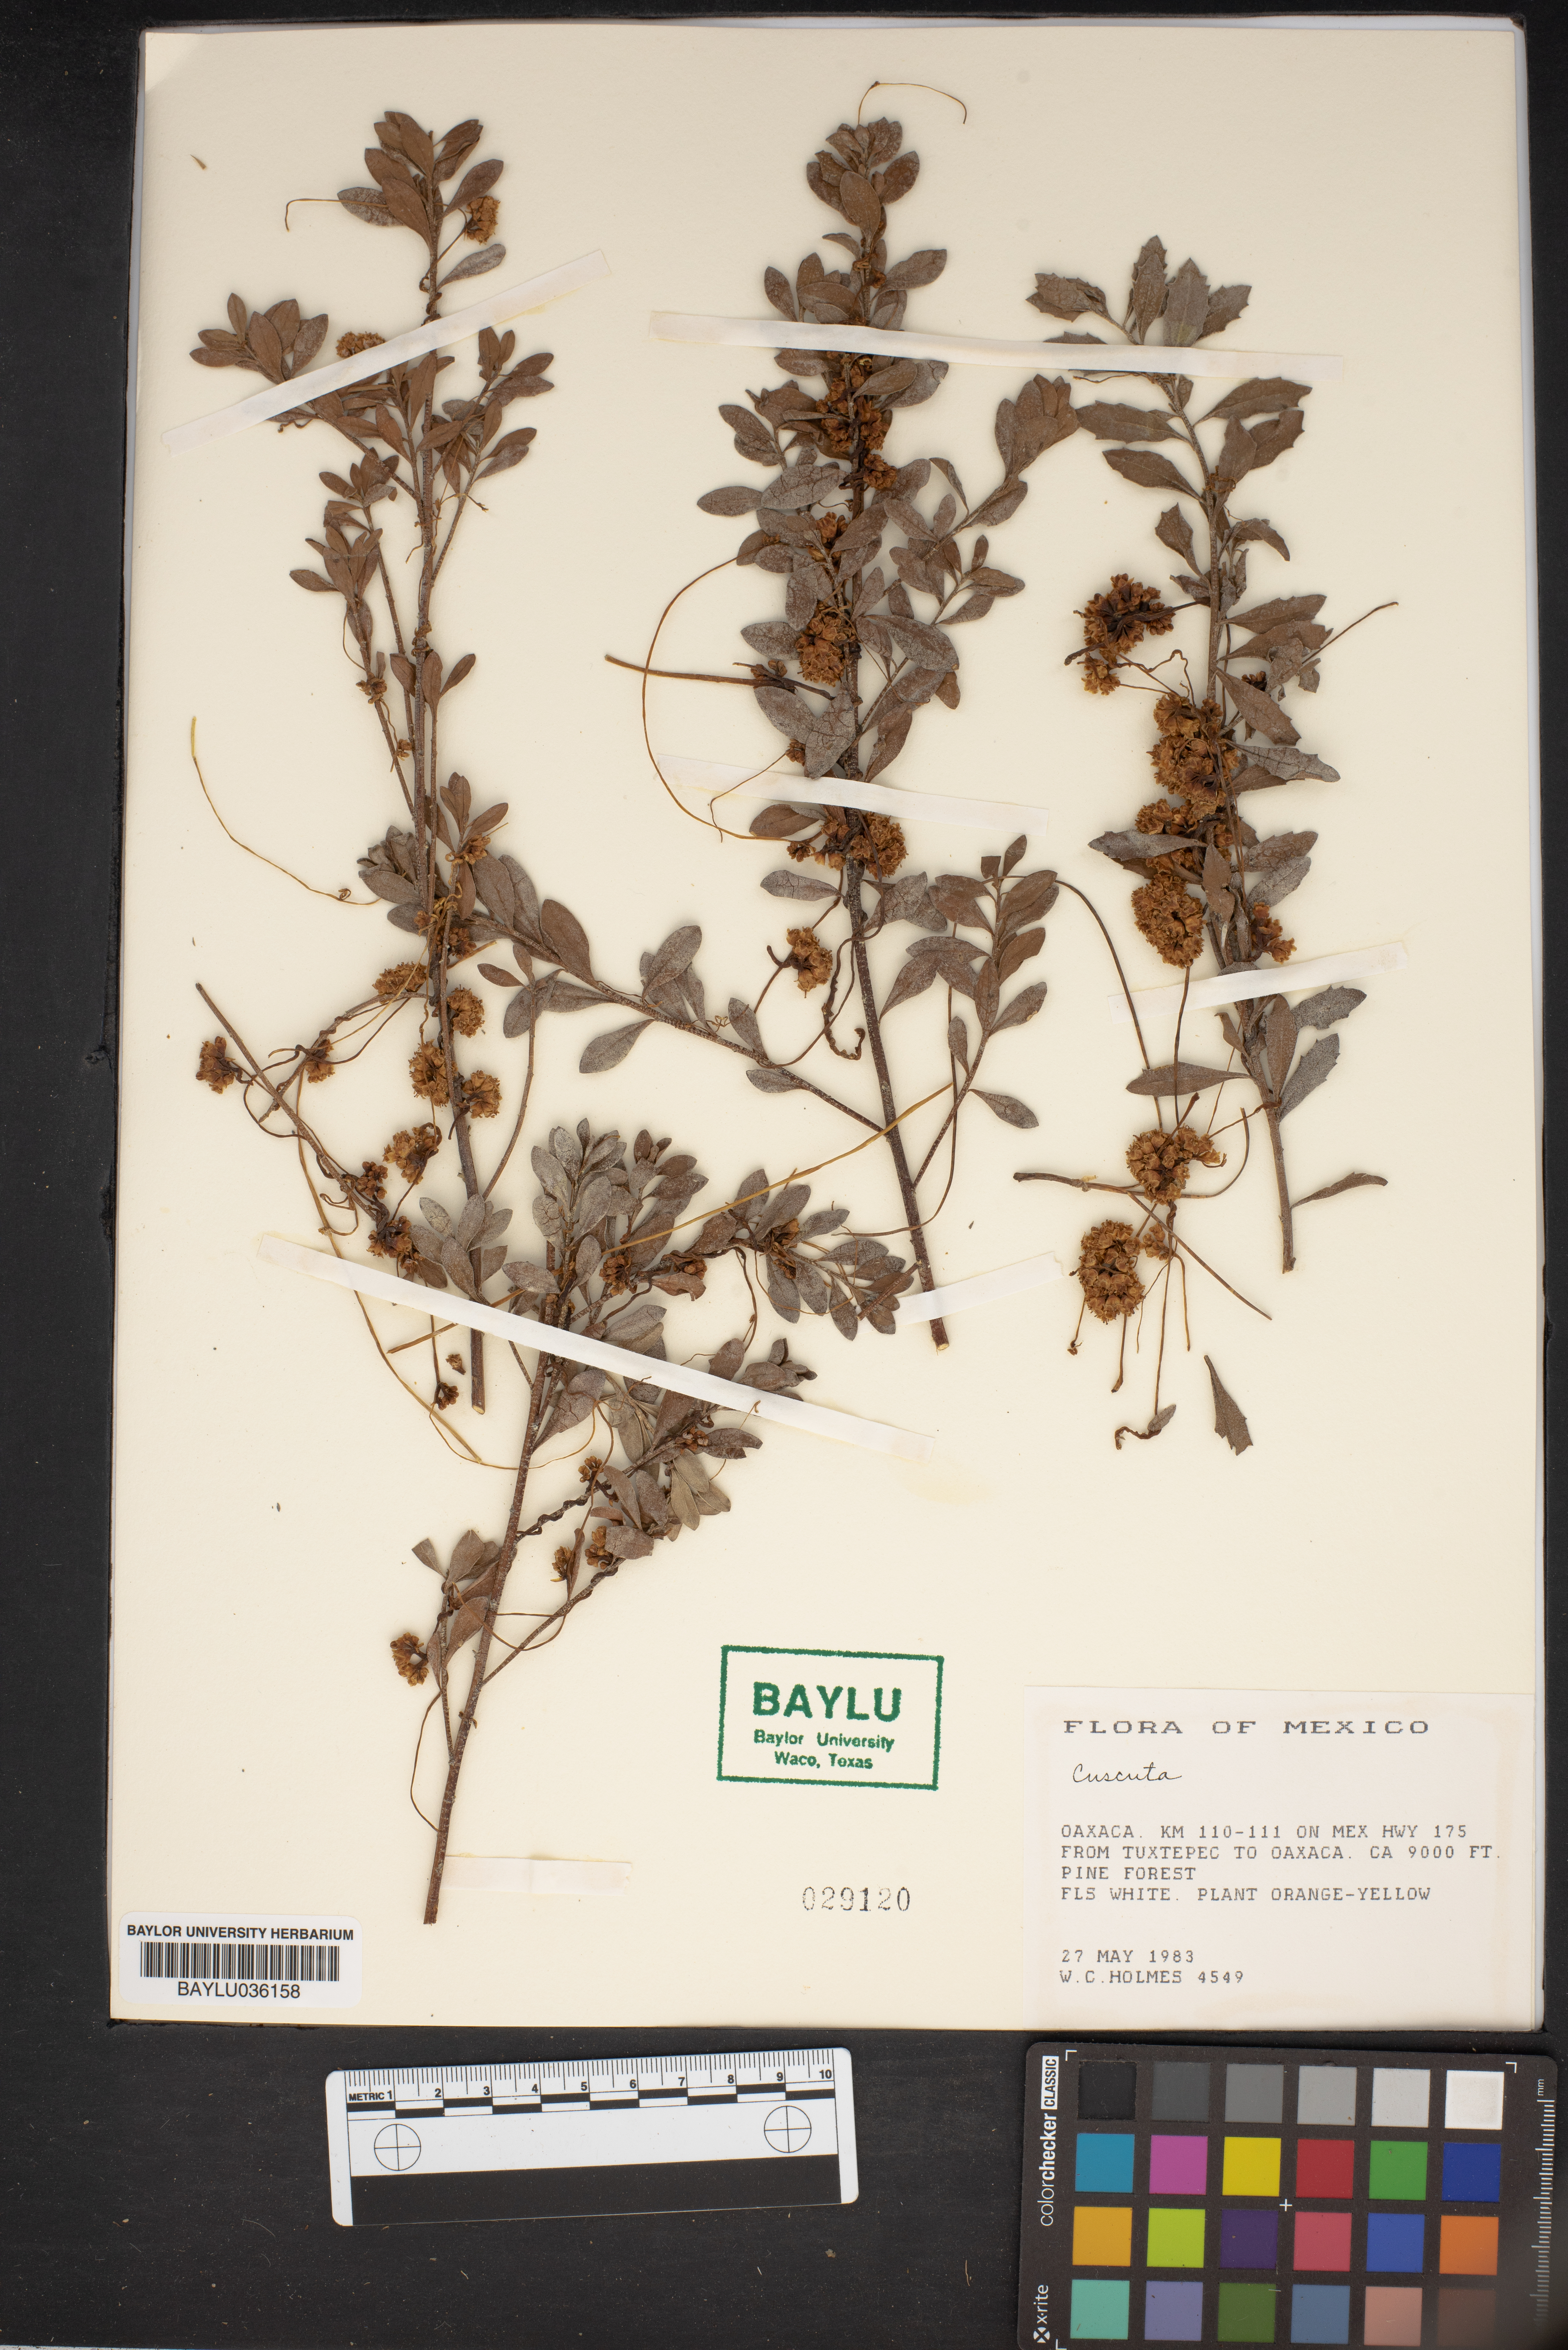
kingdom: Plantae
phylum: Tracheophyta
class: Magnoliopsida
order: Solanales
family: Convolvulaceae
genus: Cuscuta
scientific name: Cuscuta
